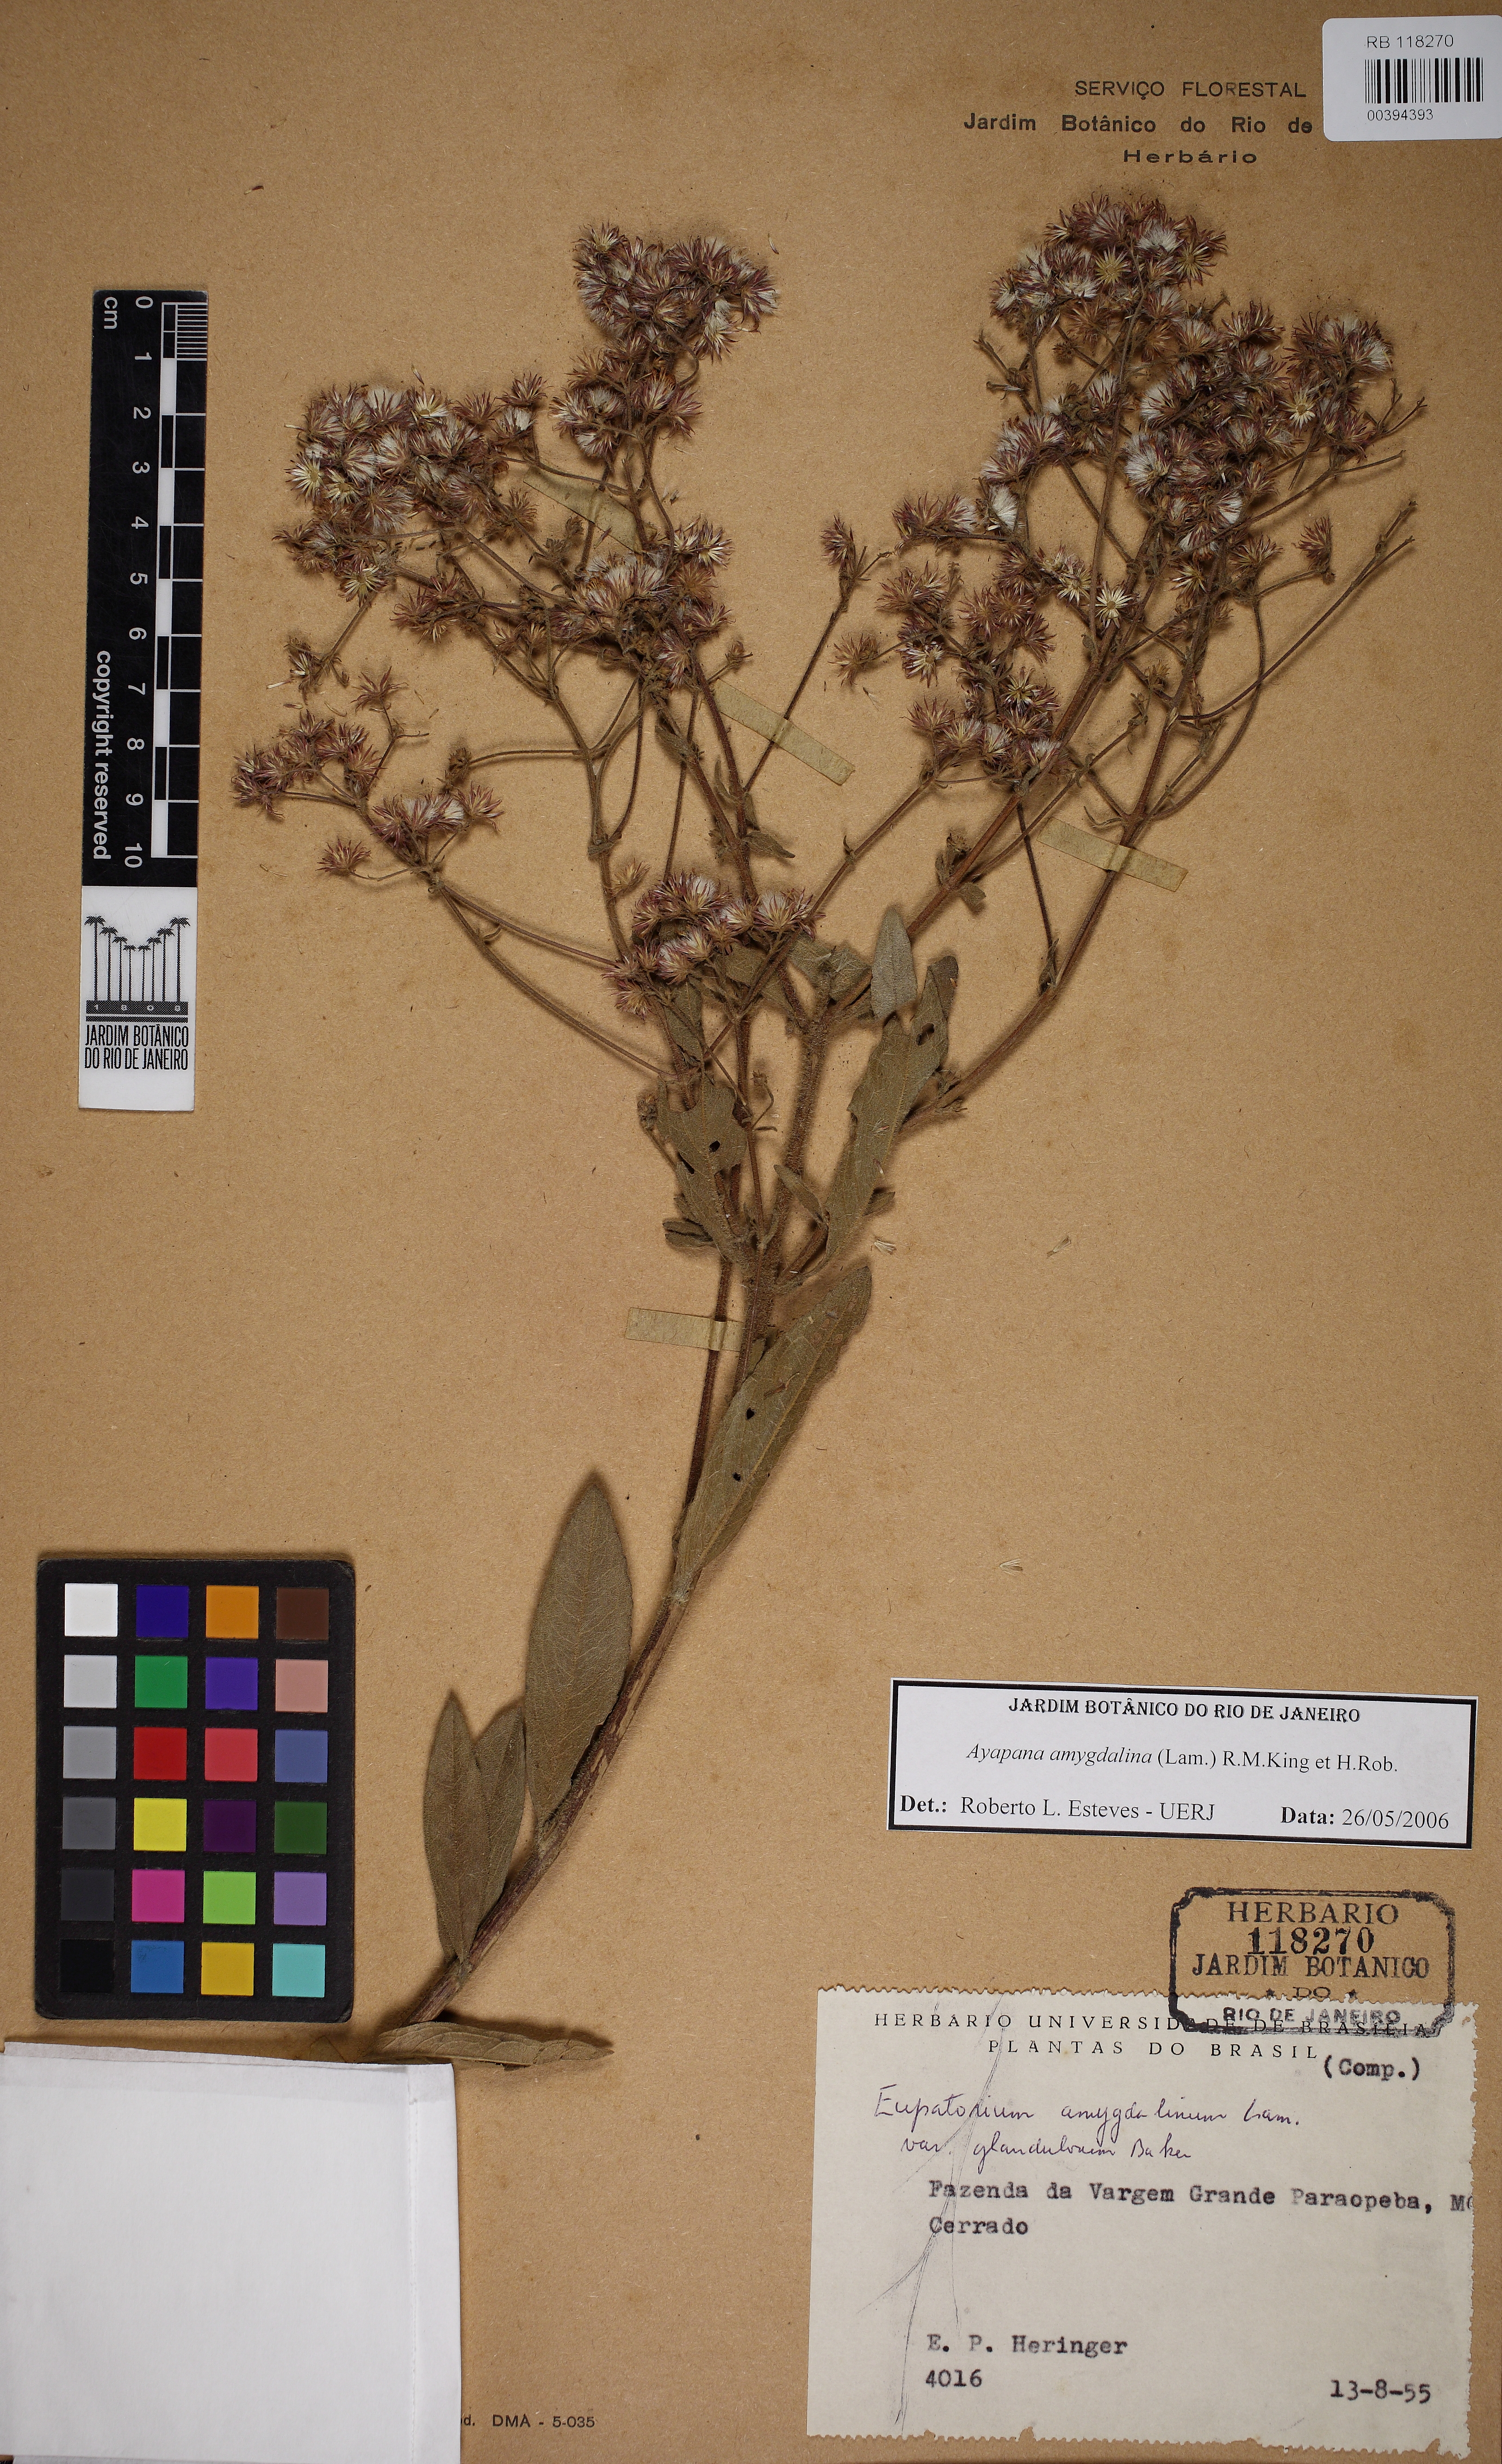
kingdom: Plantae
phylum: Tracheophyta
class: Magnoliopsida
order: Asterales
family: Asteraceae
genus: Ayapana
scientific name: Ayapana amygdalina
